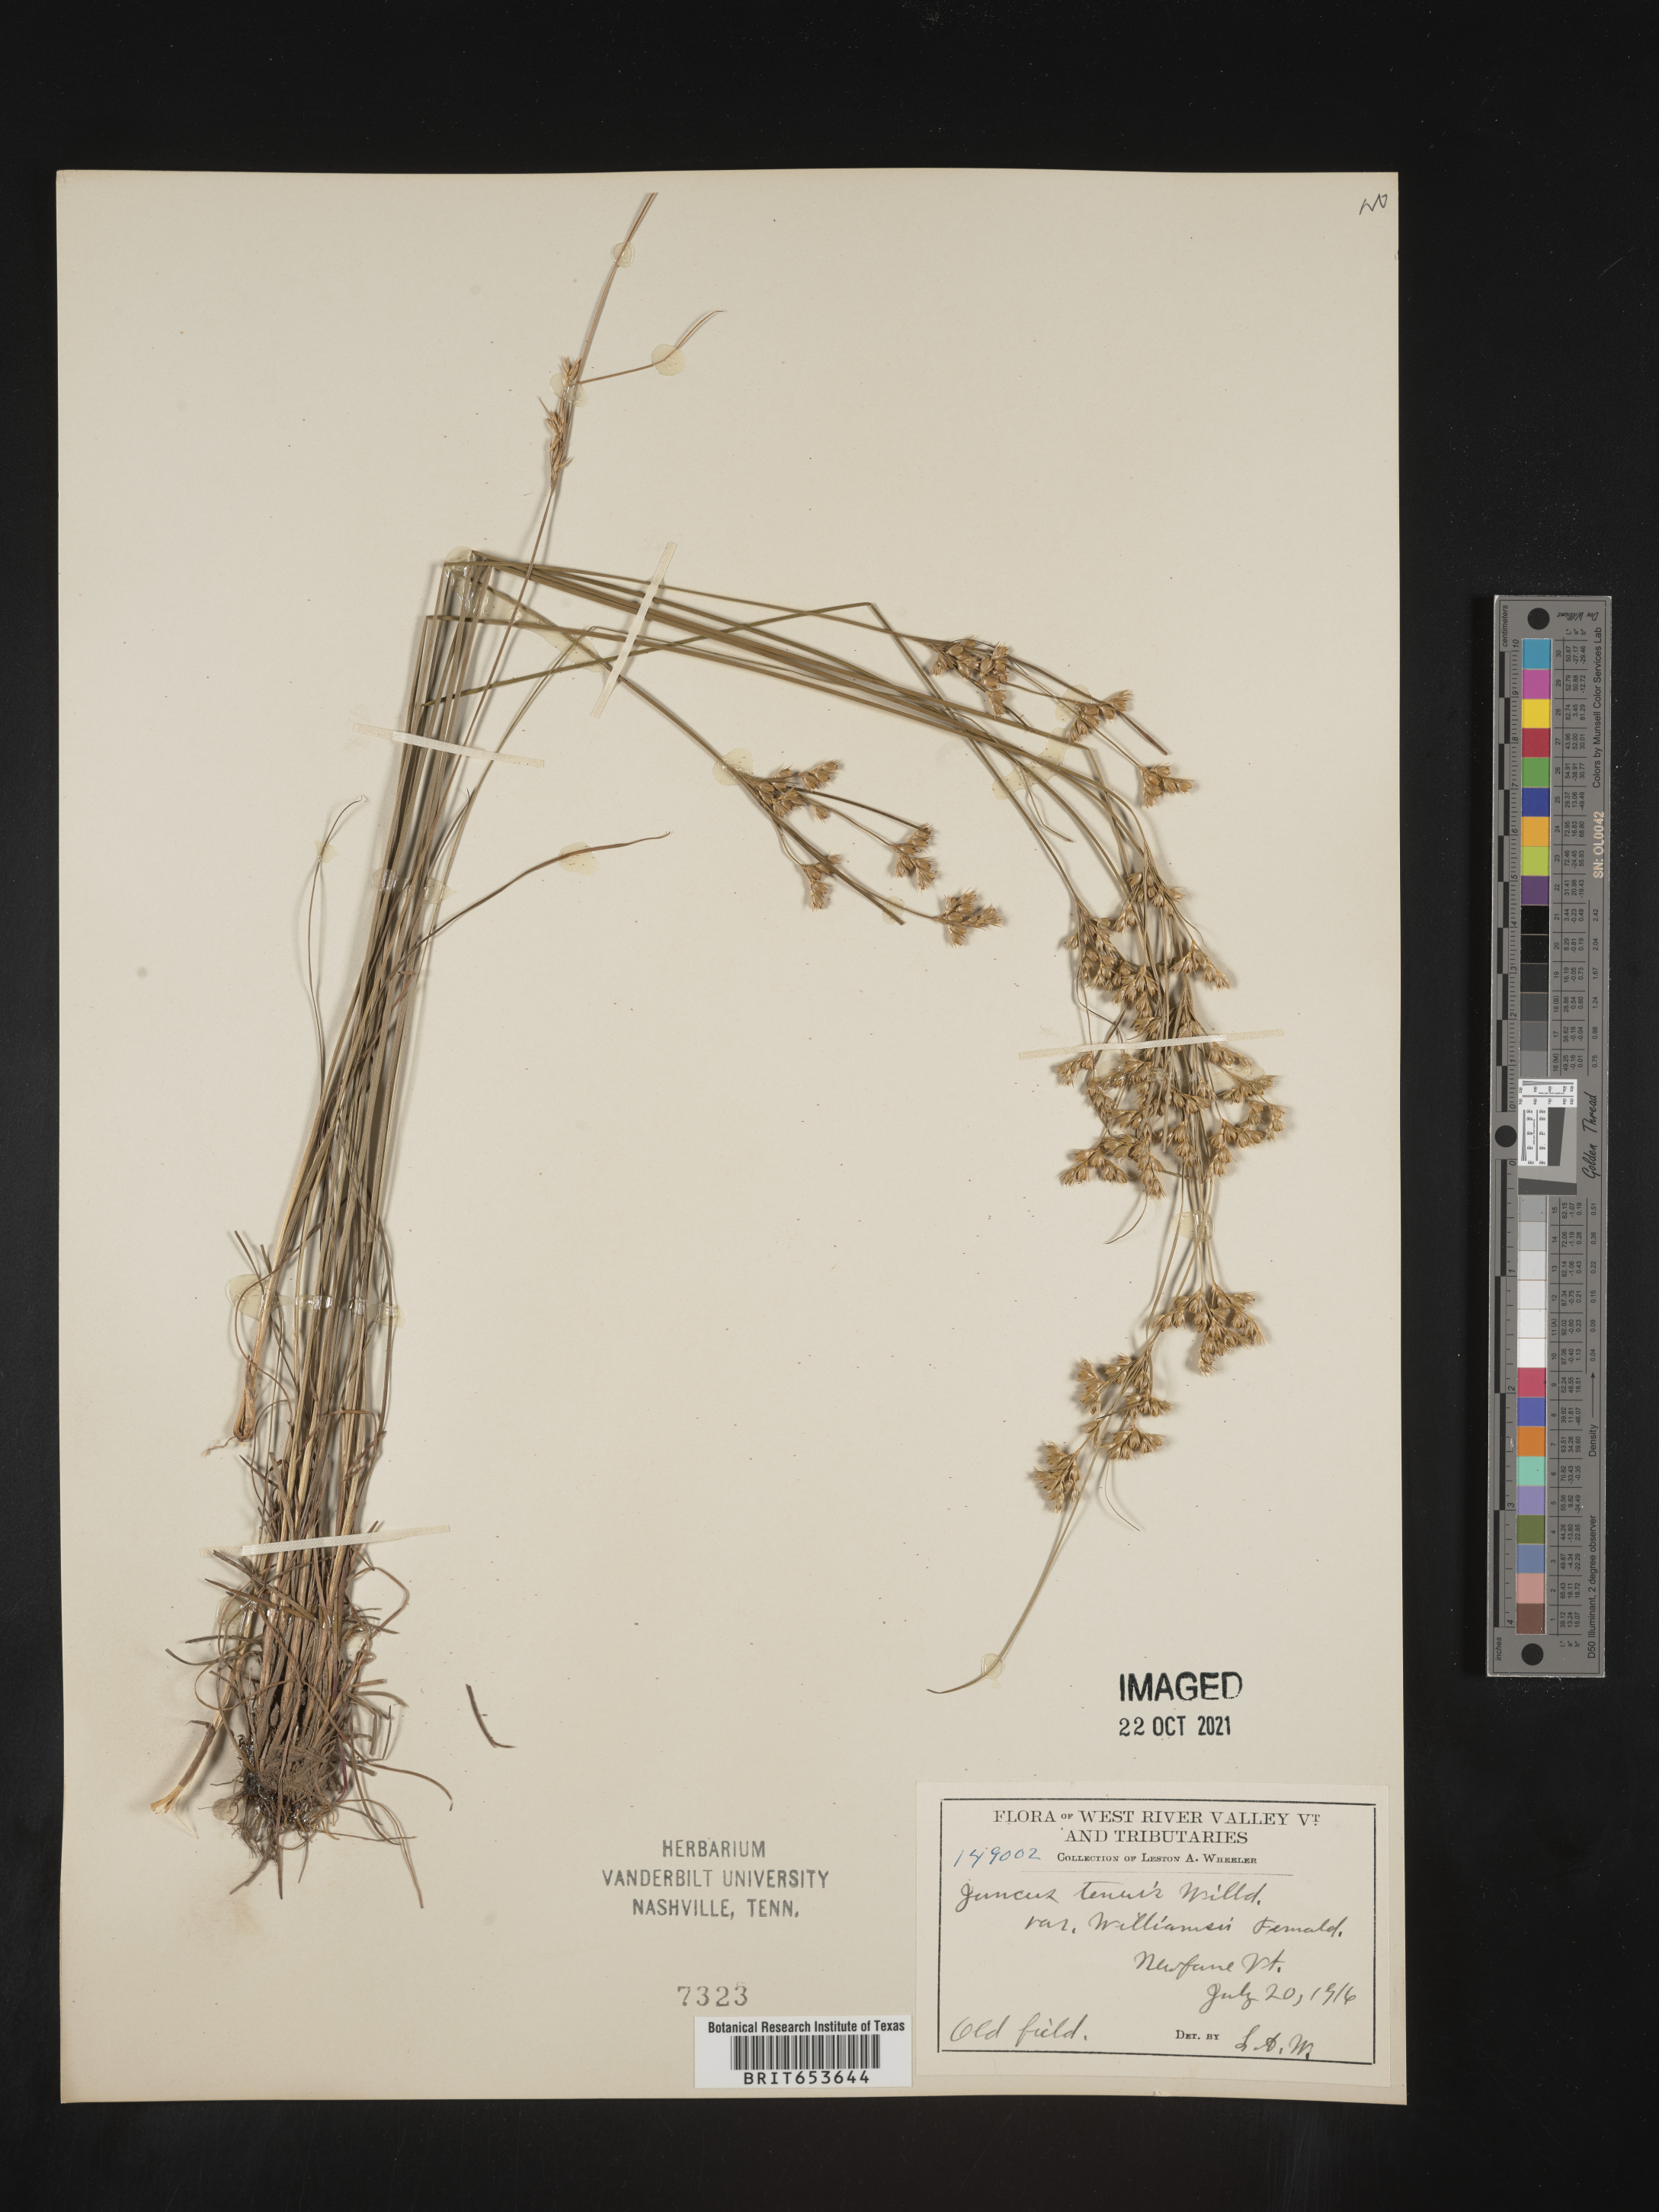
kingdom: Plantae
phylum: Tracheophyta
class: Liliopsida
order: Poales
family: Juncaceae
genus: Juncus
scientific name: Juncus tenuis
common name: Slender rush
